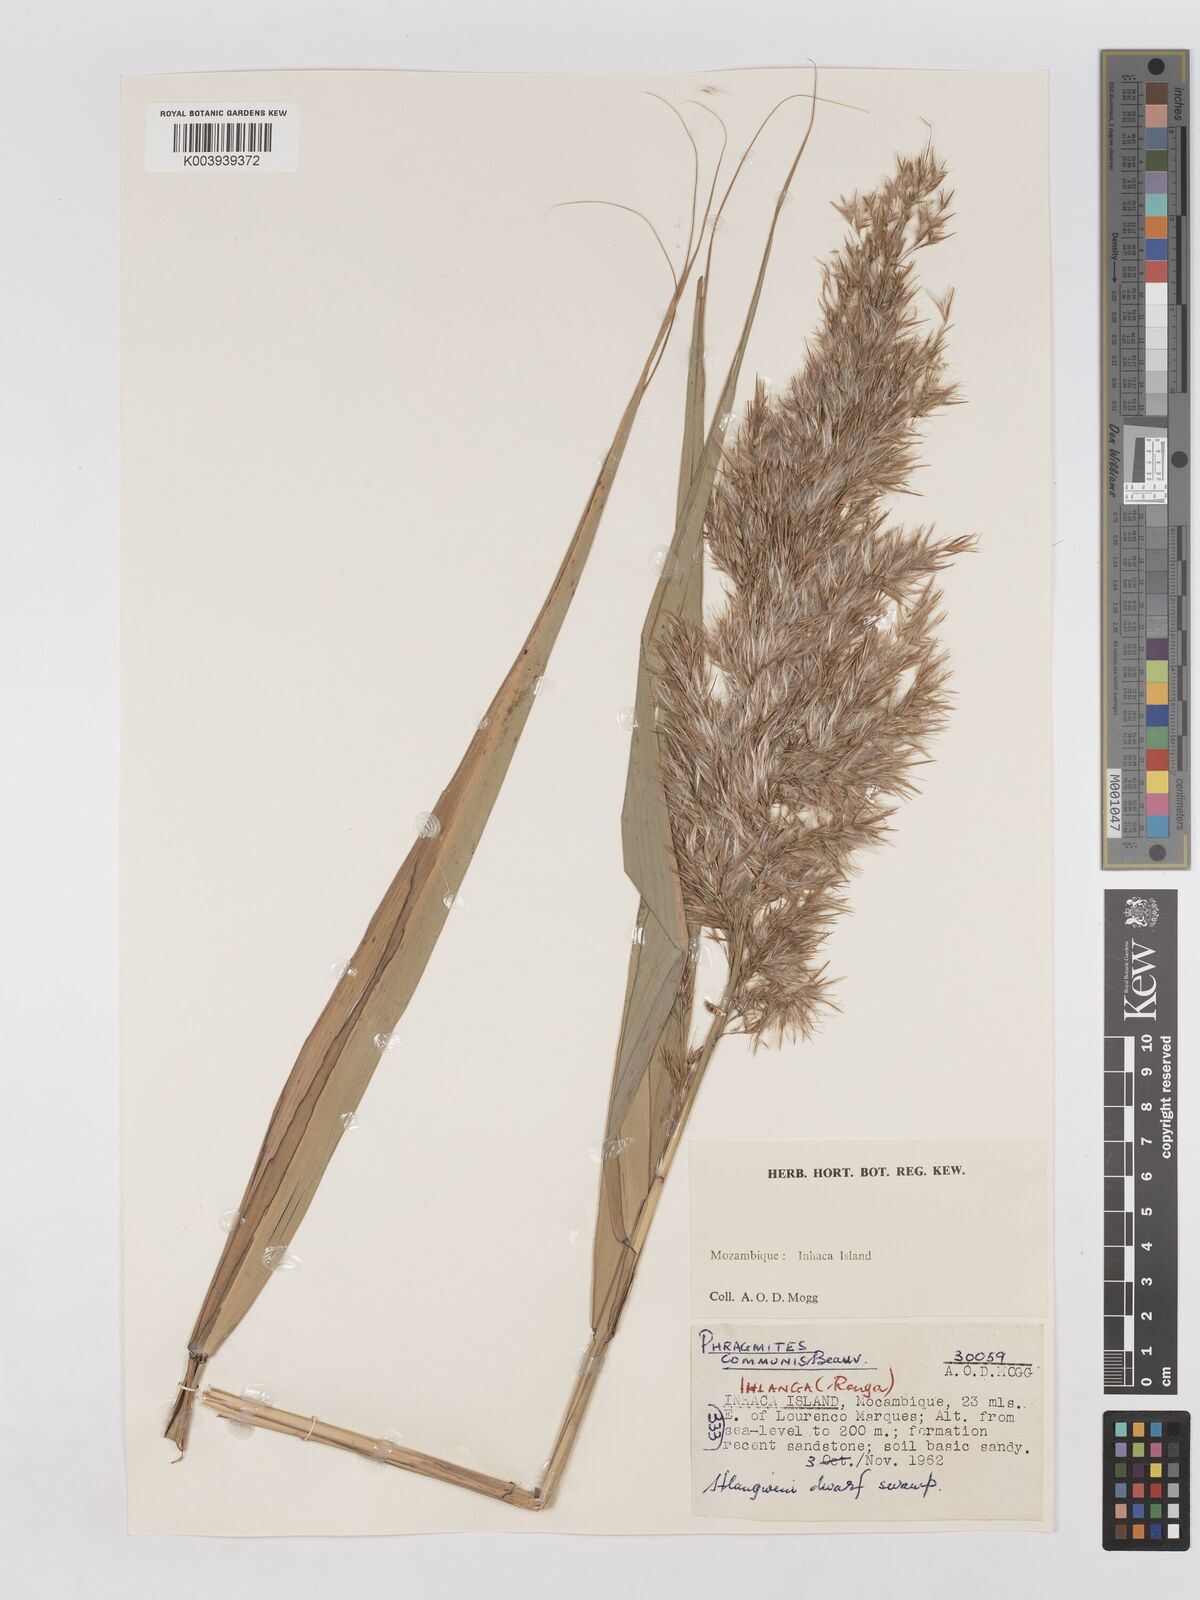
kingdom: Plantae
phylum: Tracheophyta
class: Liliopsida
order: Poales
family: Poaceae
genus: Phragmites
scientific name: Phragmites australis
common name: Common reed
